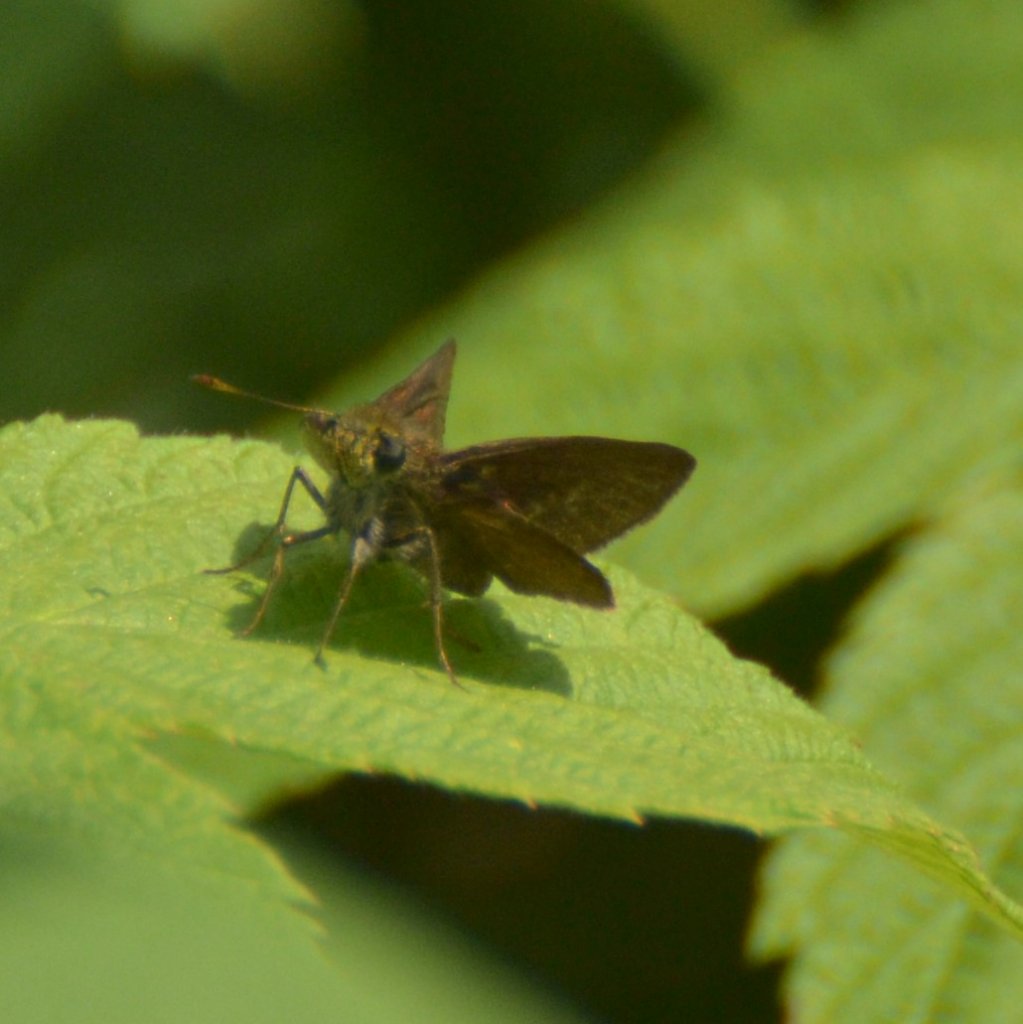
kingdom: Animalia
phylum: Arthropoda
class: Insecta
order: Lepidoptera
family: Hesperiidae
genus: Euphyes
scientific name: Euphyes vestris
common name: Dun Skipper
